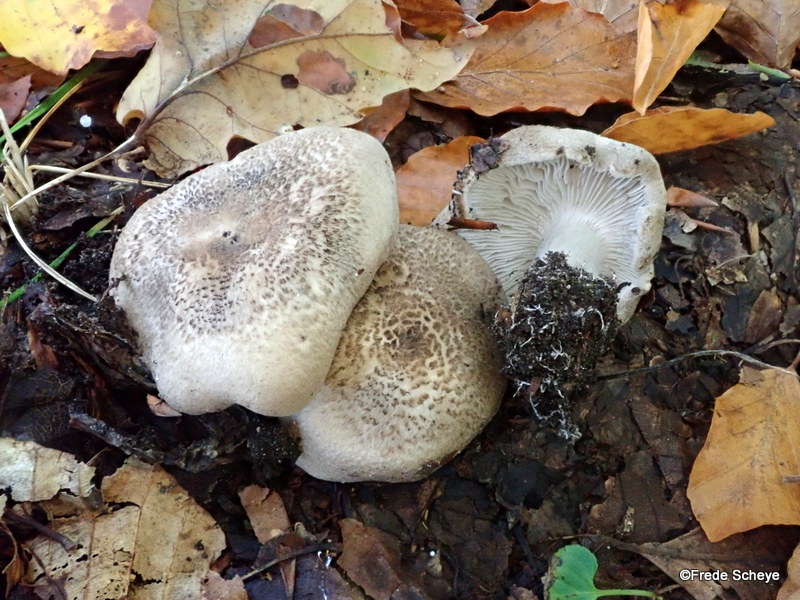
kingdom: Fungi
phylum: Basidiomycota
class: Agaricomycetes
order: Agaricales
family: Tricholomataceae
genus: Tricholoma
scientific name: Tricholoma scalpturatum
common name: gulplettet ridderhat
